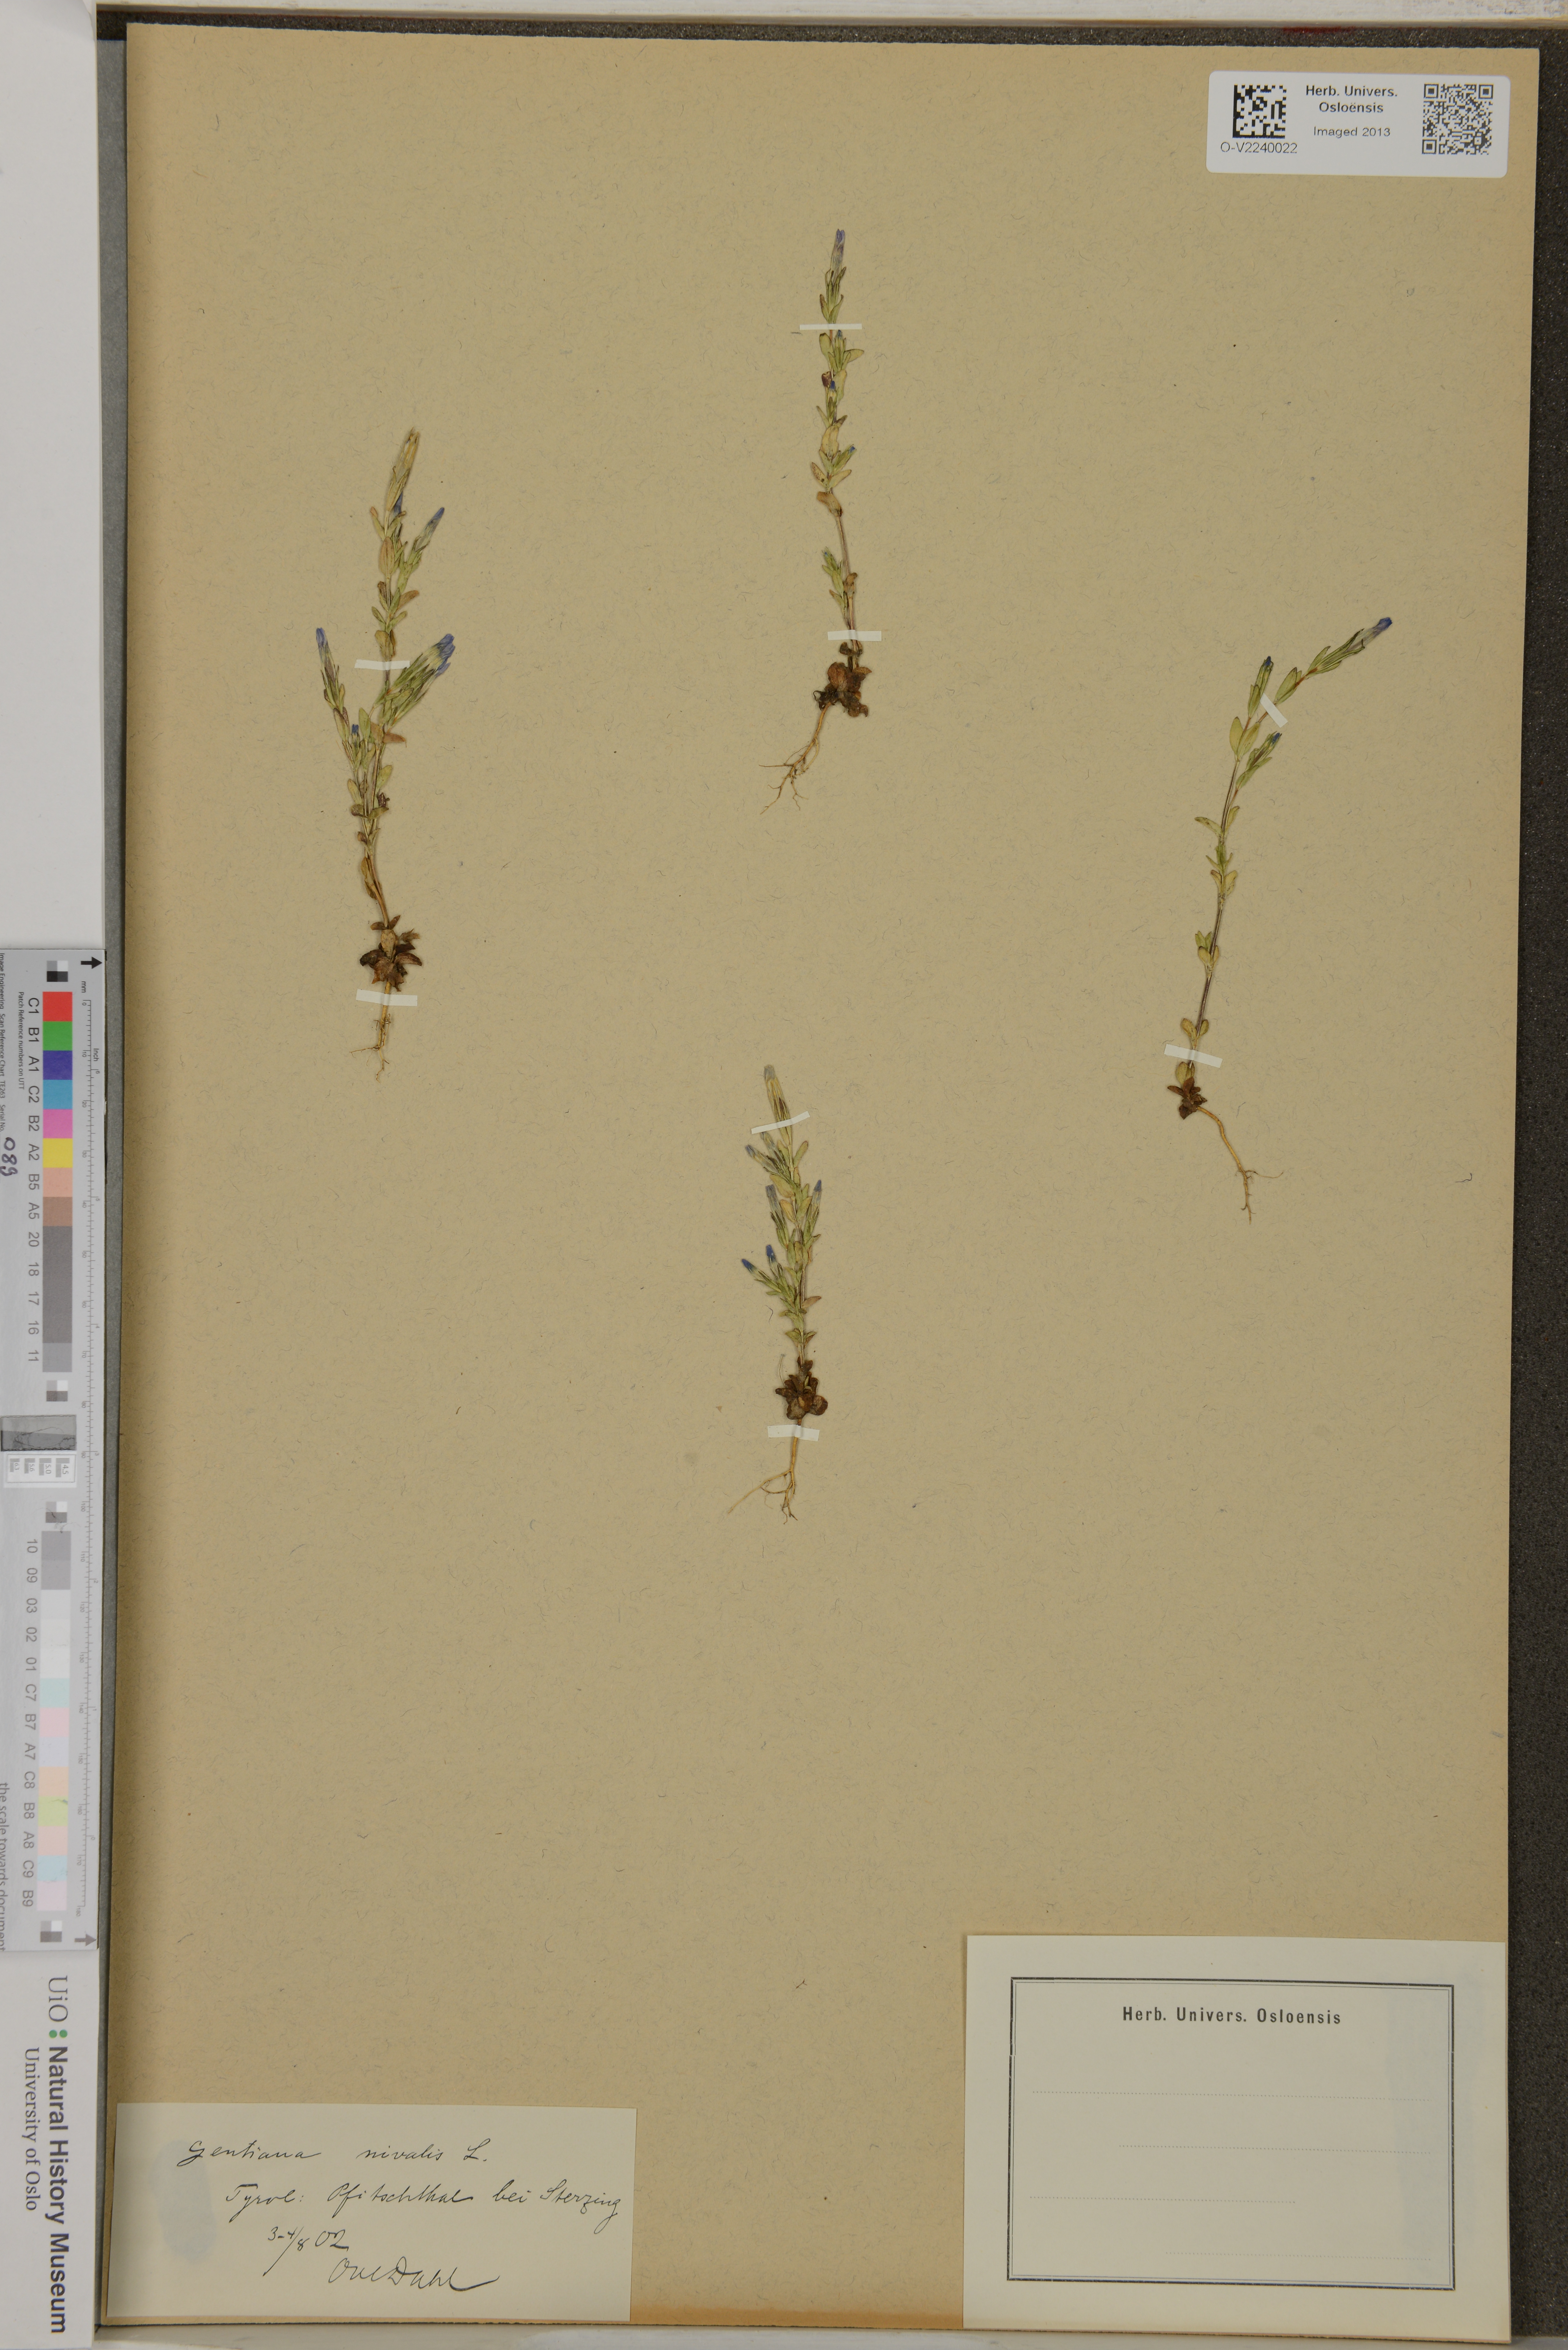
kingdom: Plantae
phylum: Tracheophyta
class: Magnoliopsida
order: Gentianales
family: Gentianaceae
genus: Gentiana
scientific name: Gentiana nivalis
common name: Alpine gentian
